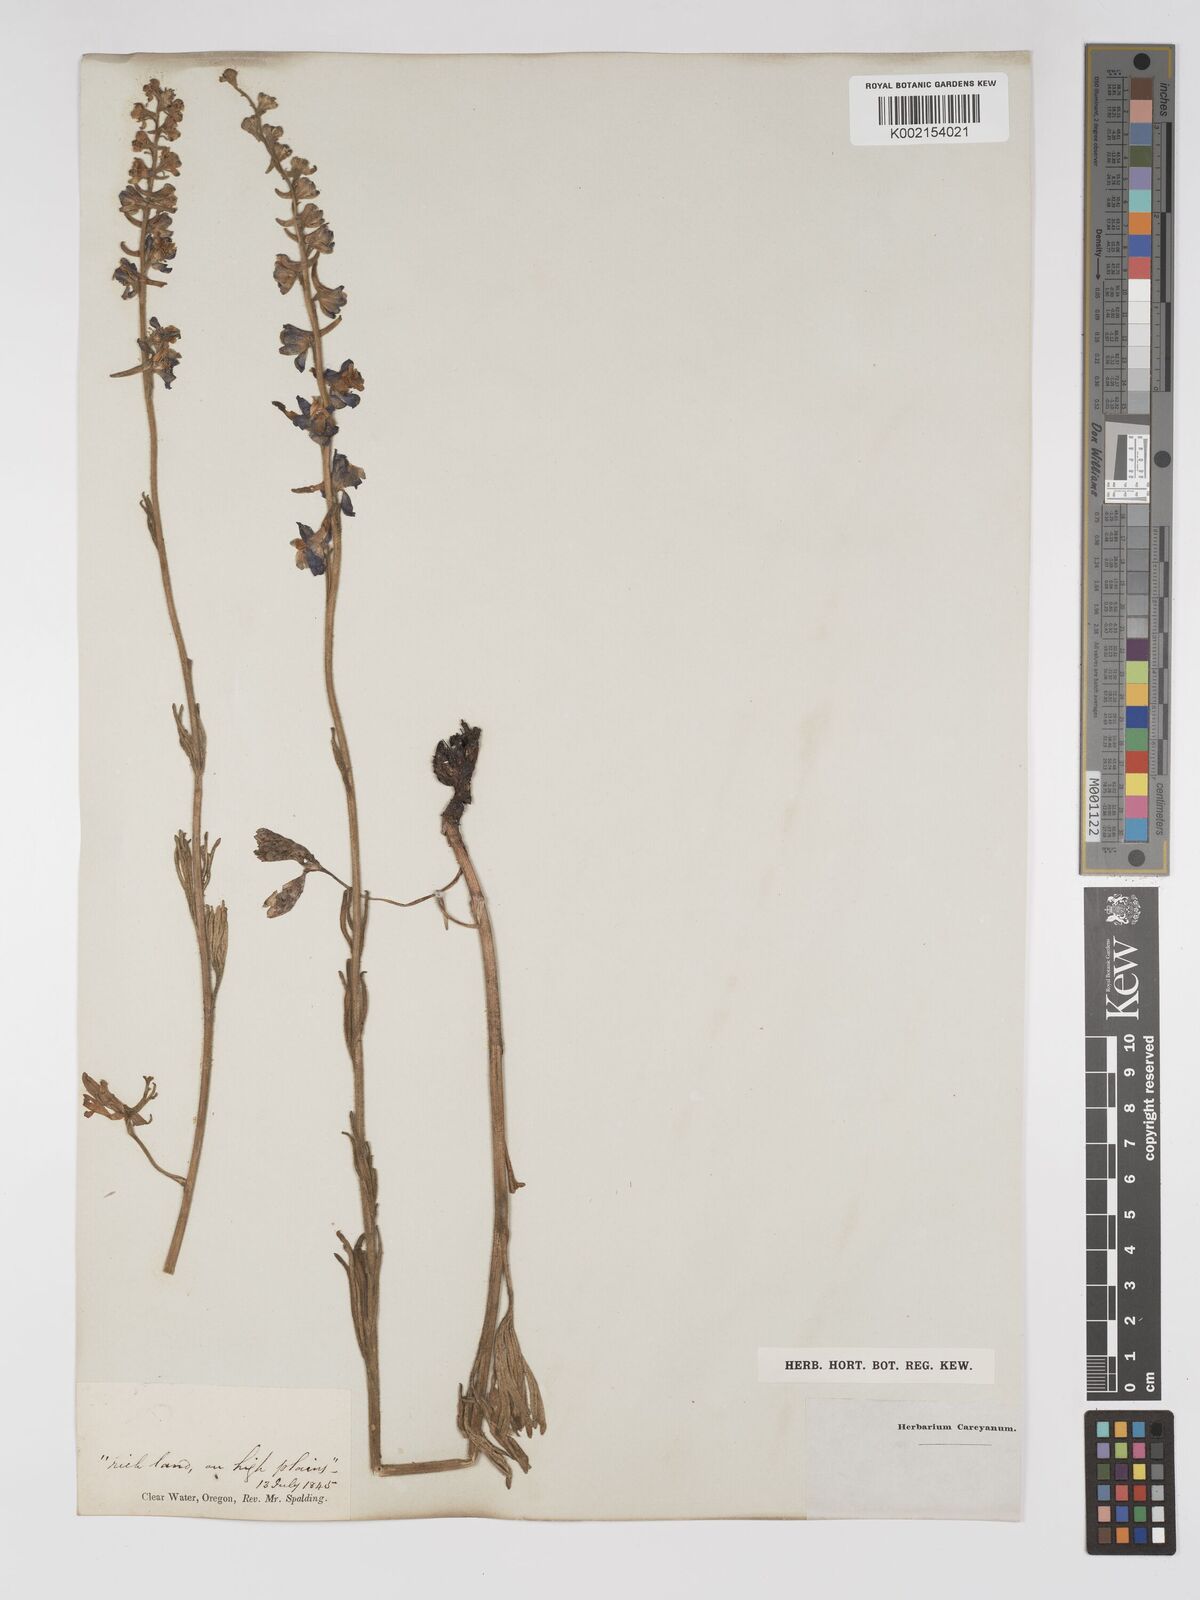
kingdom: Plantae
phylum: Tracheophyta
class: Magnoliopsida
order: Ranunculales
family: Ranunculaceae
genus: Delphinium
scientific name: Delphinium
